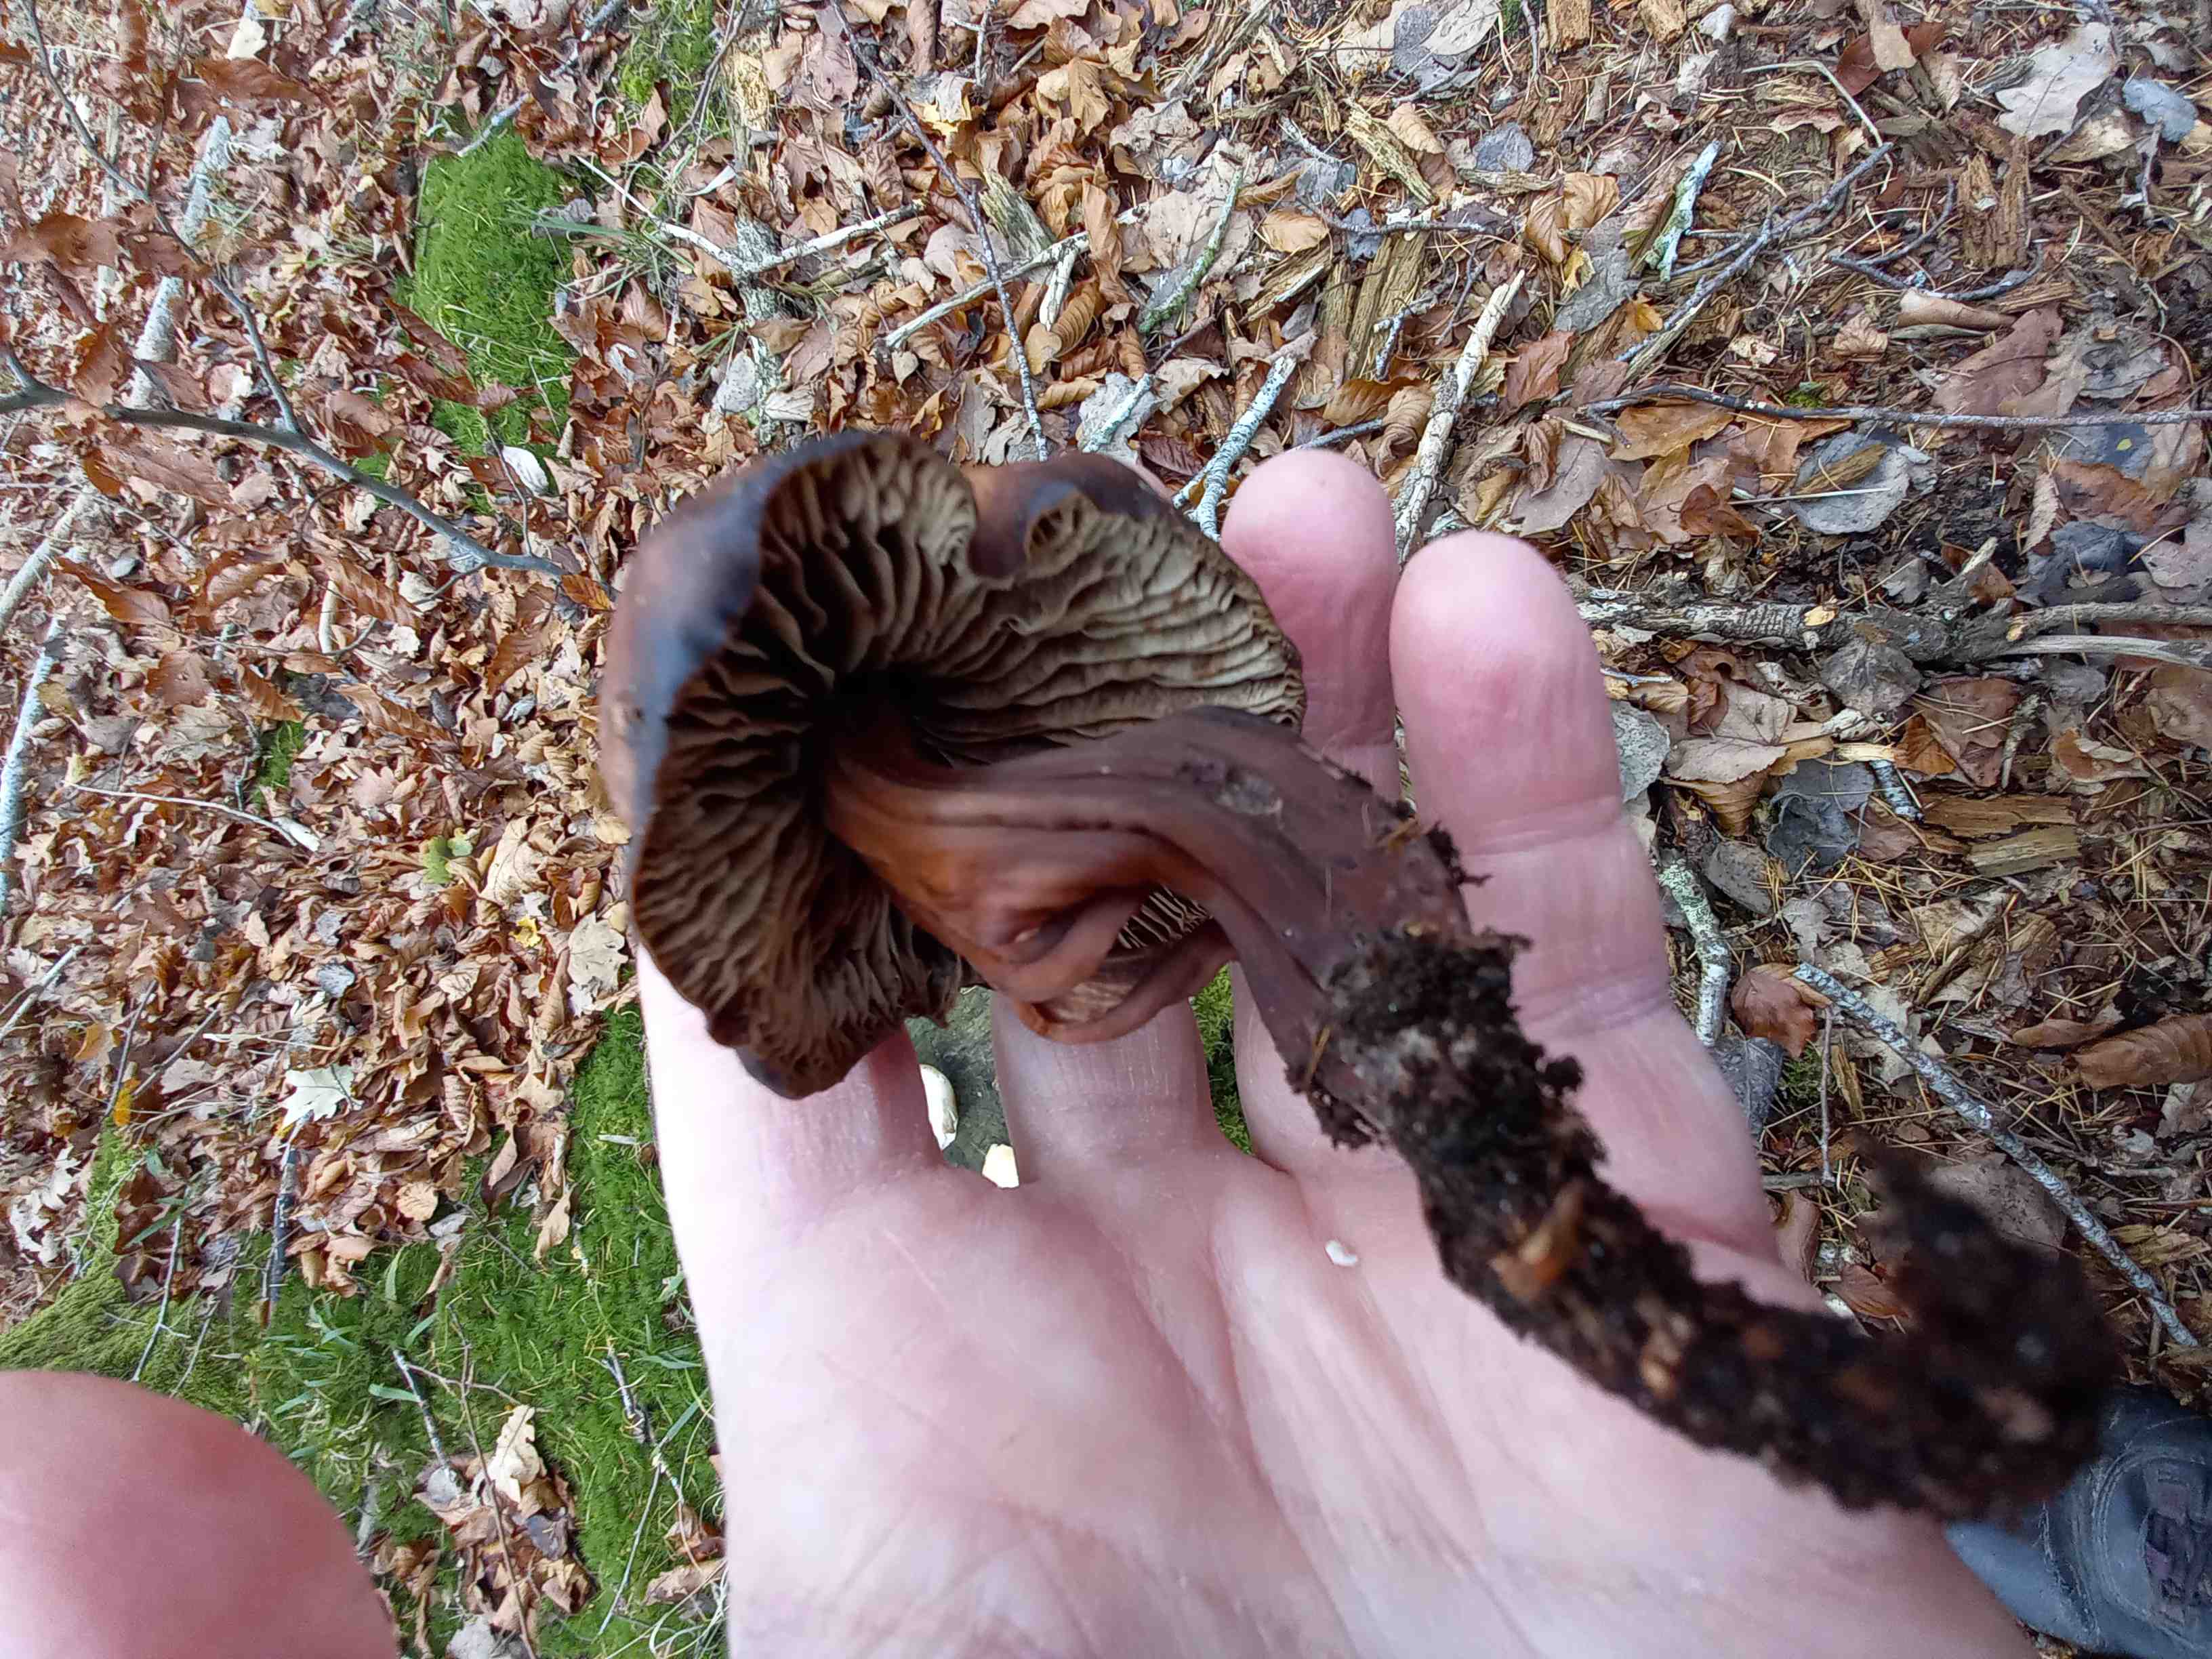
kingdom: Fungi
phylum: Basidiomycota
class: Agaricomycetes
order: Agaricales
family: Omphalotaceae
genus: Gymnopus
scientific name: Gymnopus fusipes
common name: tenstokket fladhat
